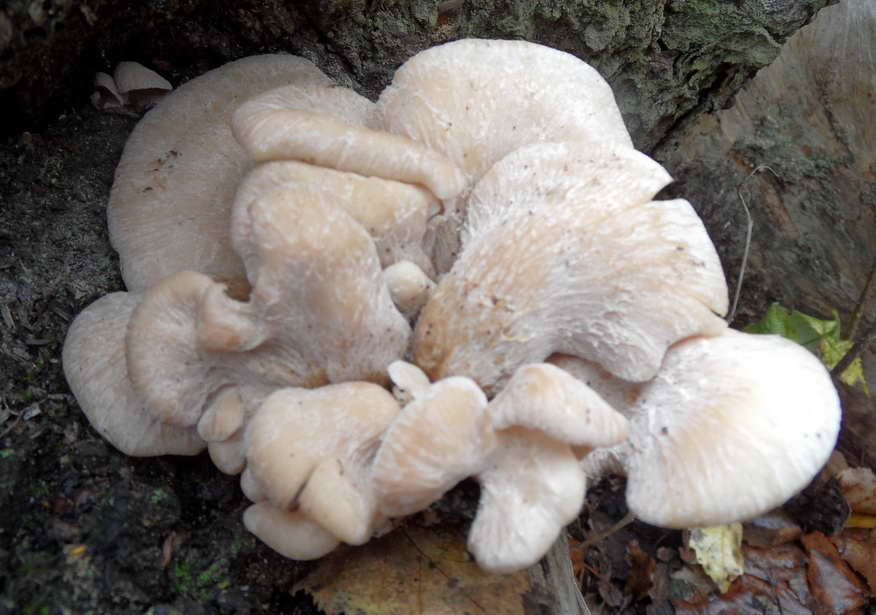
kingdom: Fungi
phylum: Basidiomycota
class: Agaricomycetes
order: Russulales
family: Auriscalpiaceae
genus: Lentinellus
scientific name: Lentinellus ursinus
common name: børstehåret savbladhat
